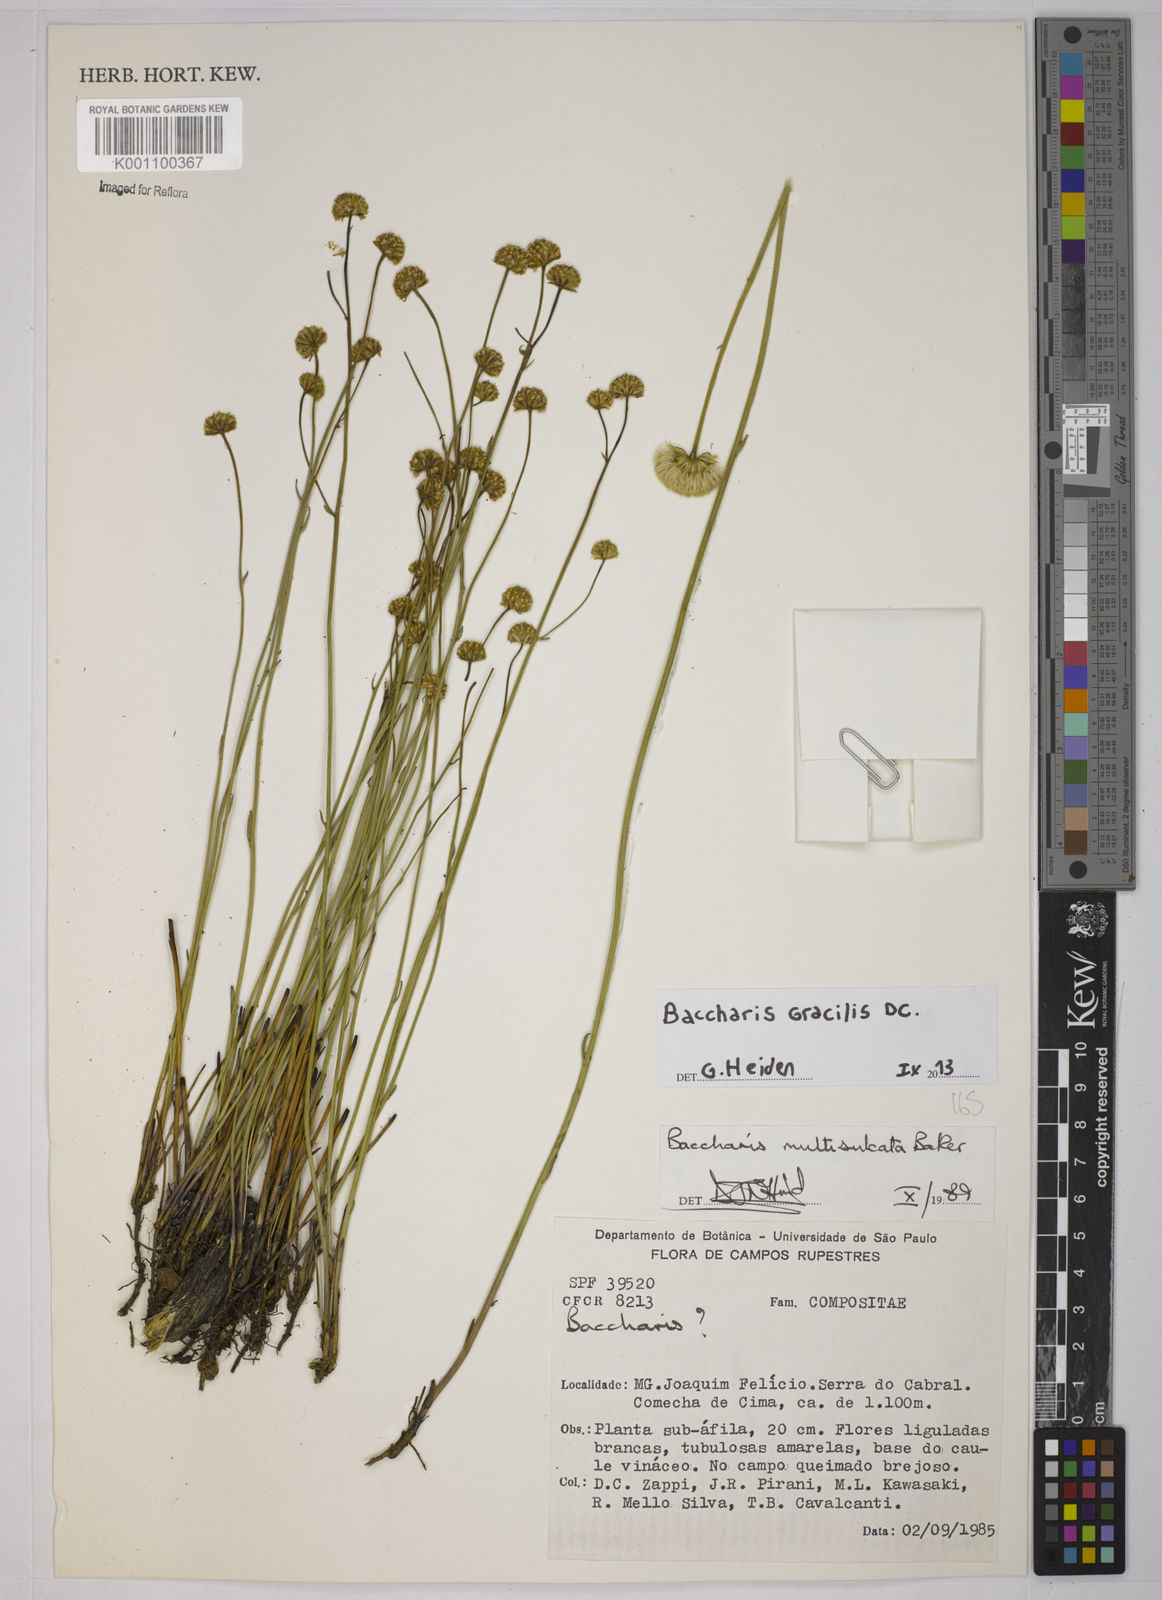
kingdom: Plantae
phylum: Tracheophyta
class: Magnoliopsida
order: Asterales
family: Asteraceae
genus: Baccharis
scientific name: Baccharis gracilis
